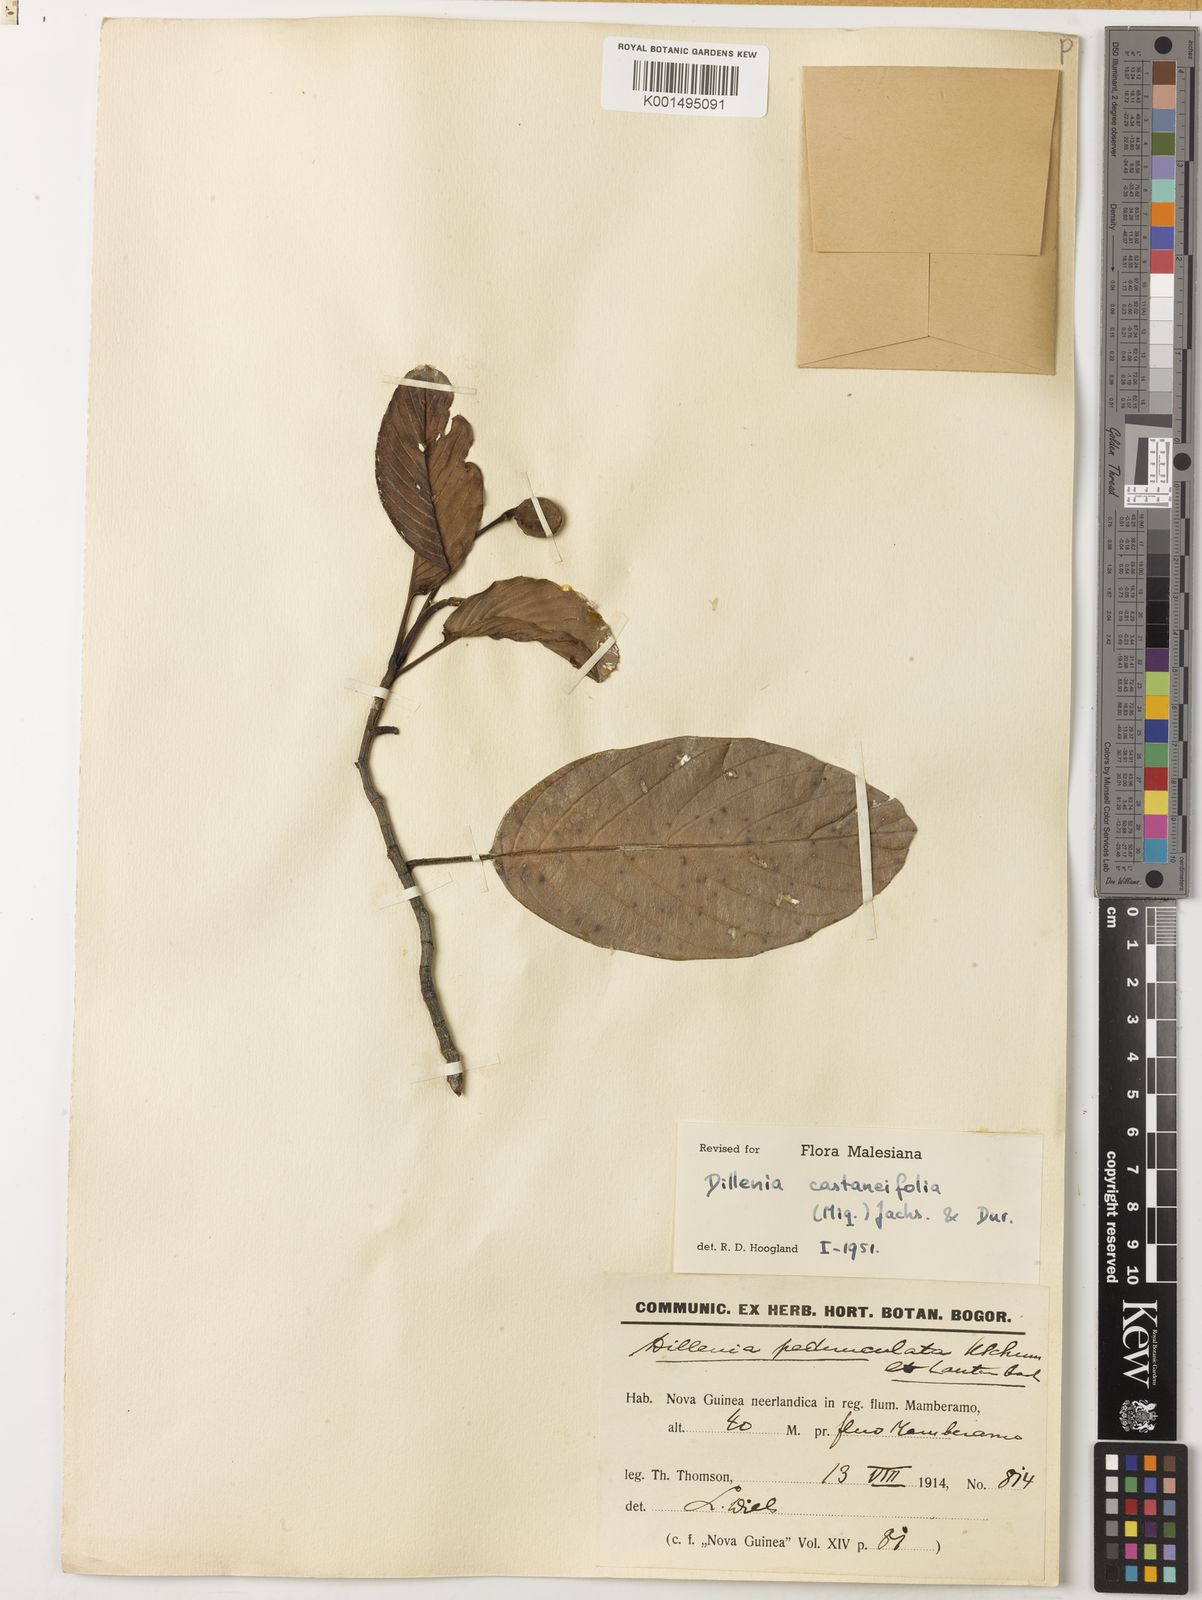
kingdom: Plantae
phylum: Tracheophyta
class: Magnoliopsida
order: Dilleniales
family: Dilleniaceae
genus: Dillenia
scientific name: Dillenia castaneifolia
